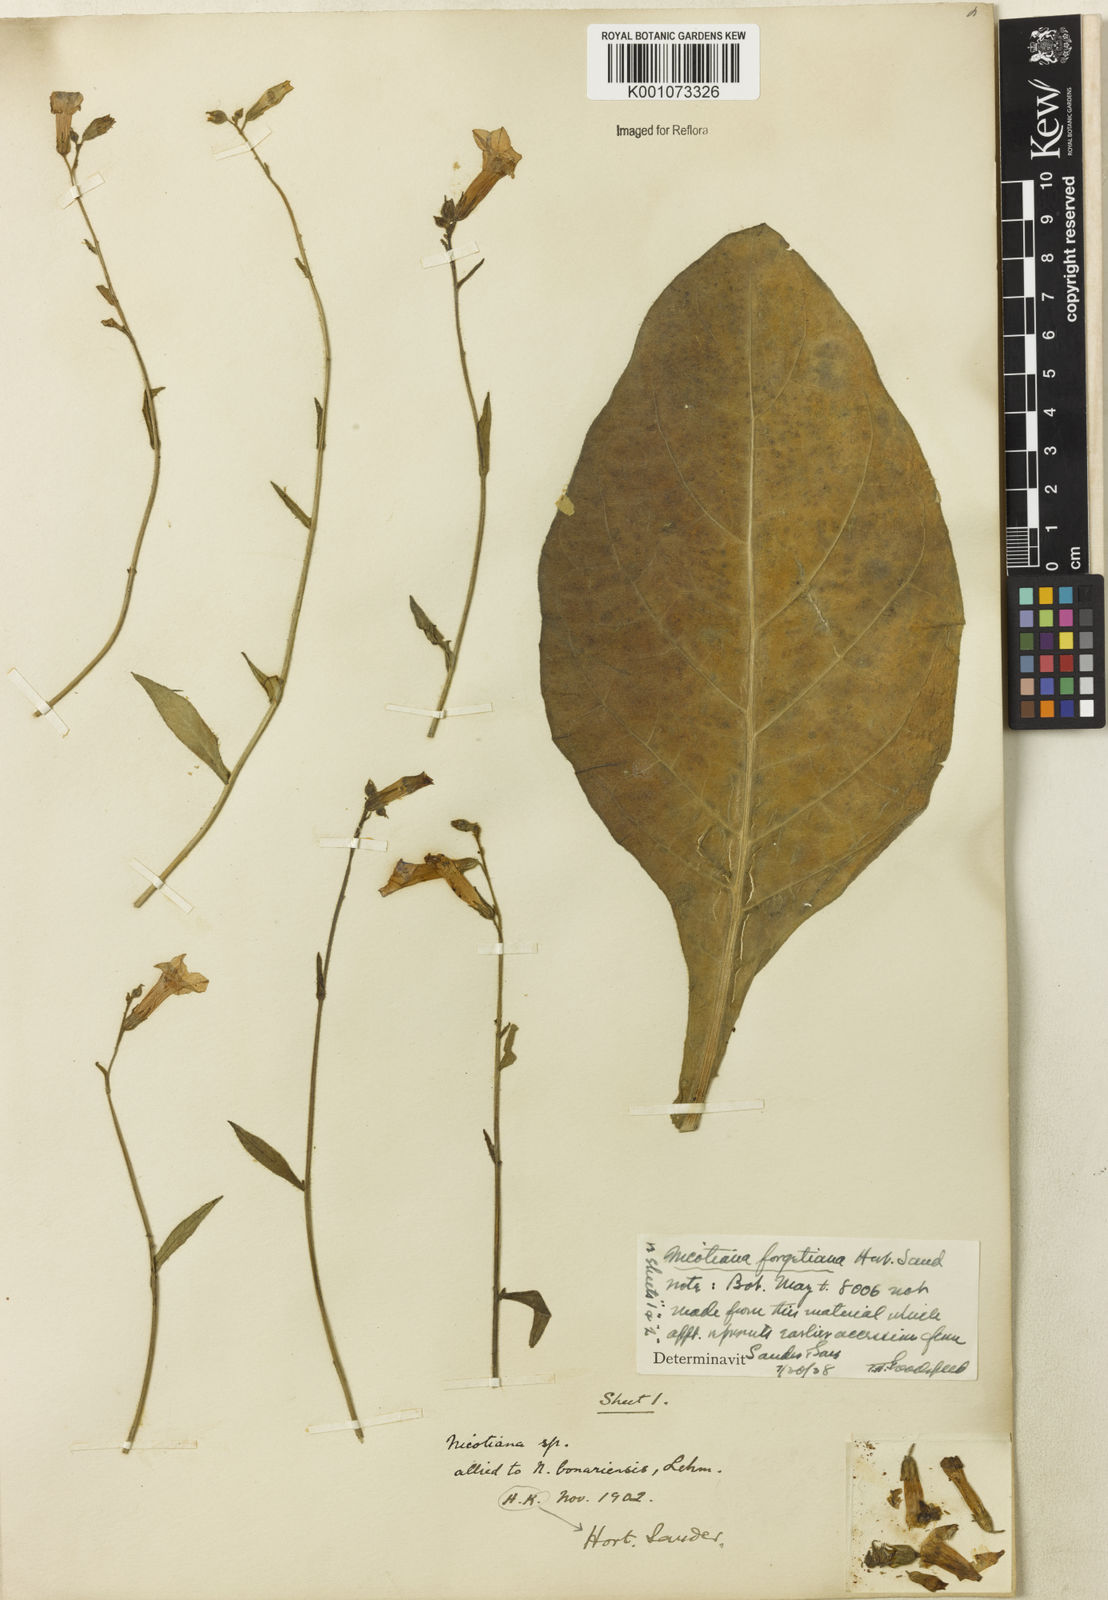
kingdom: Plantae
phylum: Tracheophyta
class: Magnoliopsida
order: Solanales
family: Solanaceae
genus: Nicotiana
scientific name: Nicotiana
